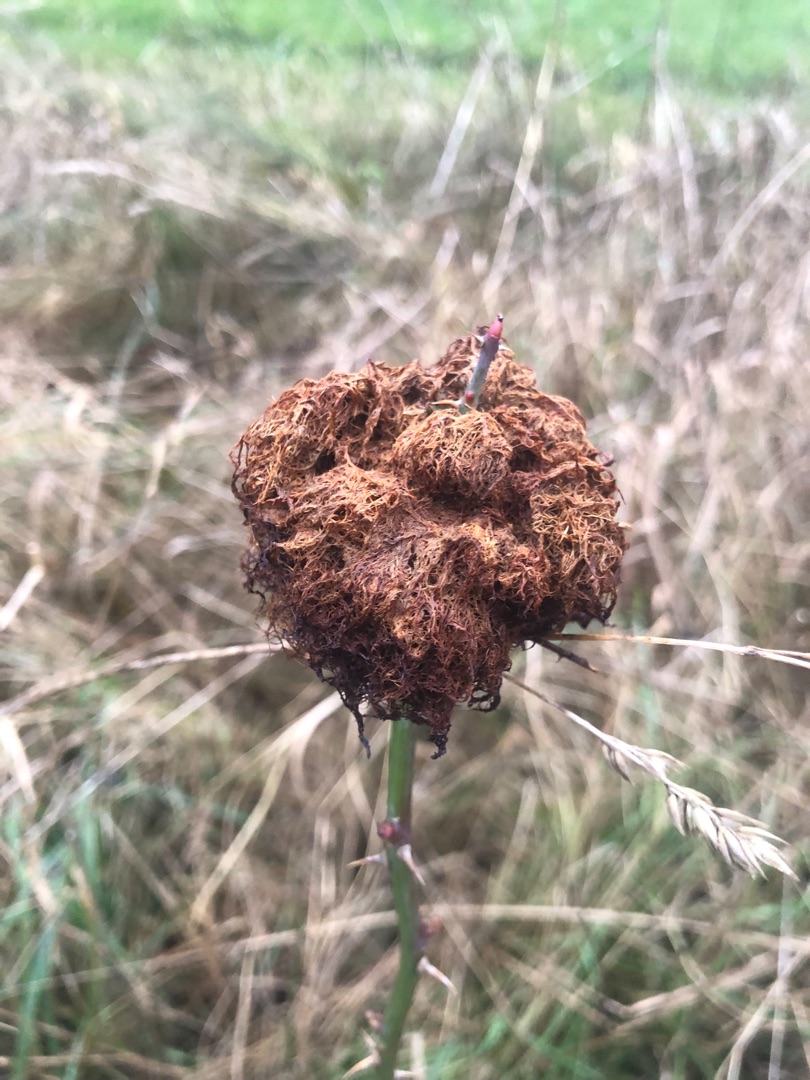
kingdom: Animalia
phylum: Arthropoda
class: Insecta
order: Hymenoptera
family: Cynipidae
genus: Diplolepis
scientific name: Diplolepis rosae
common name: Bedeguargalhveps
